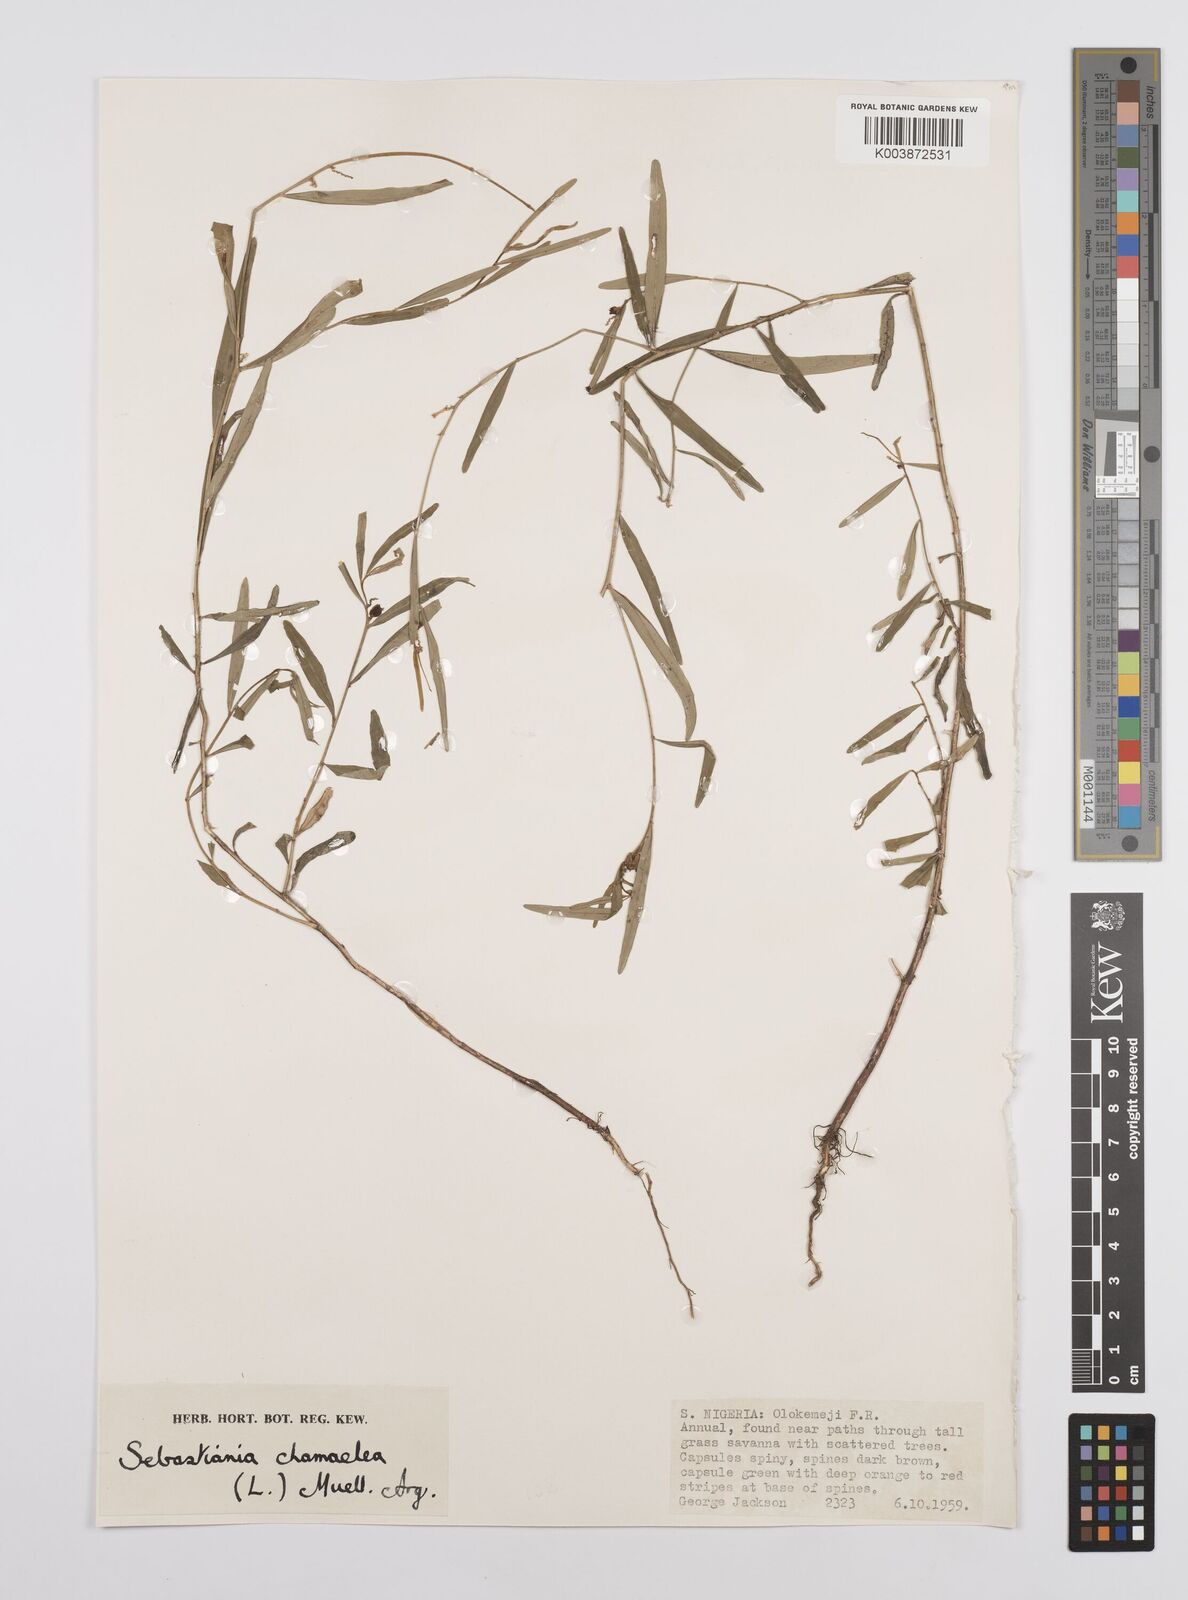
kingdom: Plantae
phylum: Tracheophyta
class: Magnoliopsida
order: Malpighiales
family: Euphorbiaceae
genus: Microstachys
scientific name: Microstachys chamaelea
